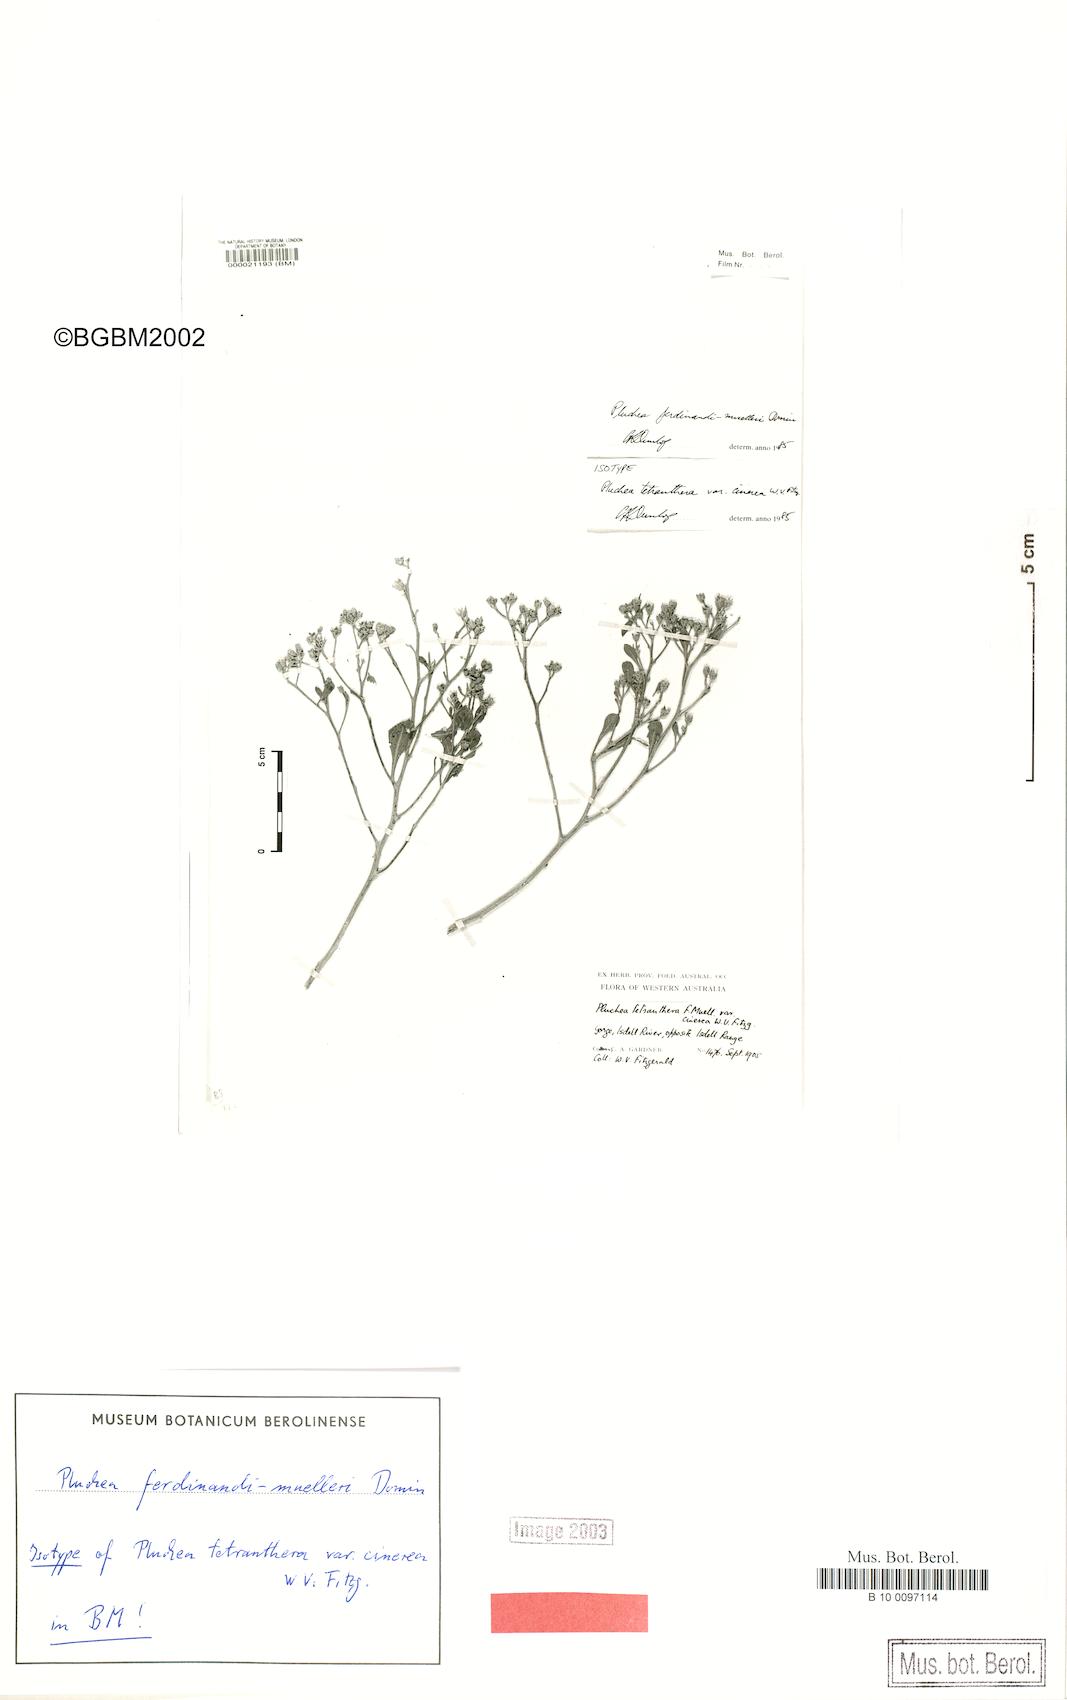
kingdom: Plantae
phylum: Tracheophyta
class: Magnoliopsida
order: Asterales
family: Asteraceae
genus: Pluchea
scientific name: Pluchea ferdinandi-muelleri
